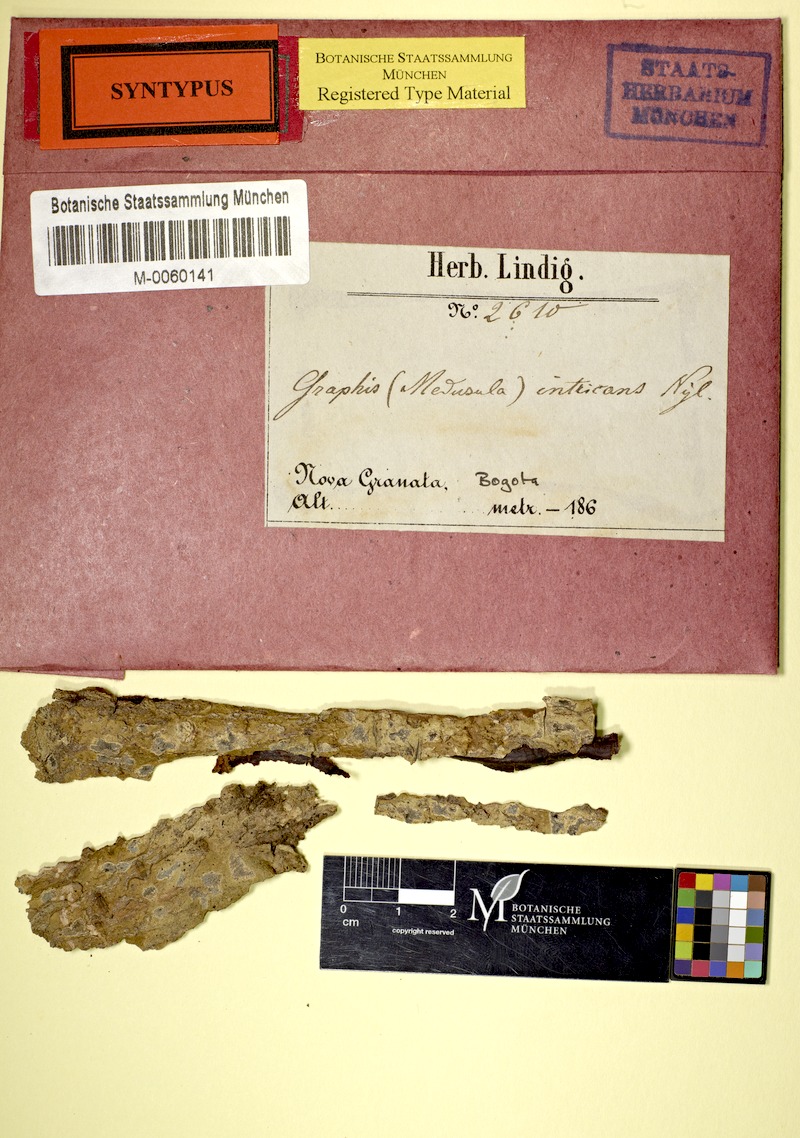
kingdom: Fungi
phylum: Ascomycota
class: Lecanoromycetes
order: Ostropales
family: Graphidaceae
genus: Sarcographa
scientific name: Sarcographa intricans
